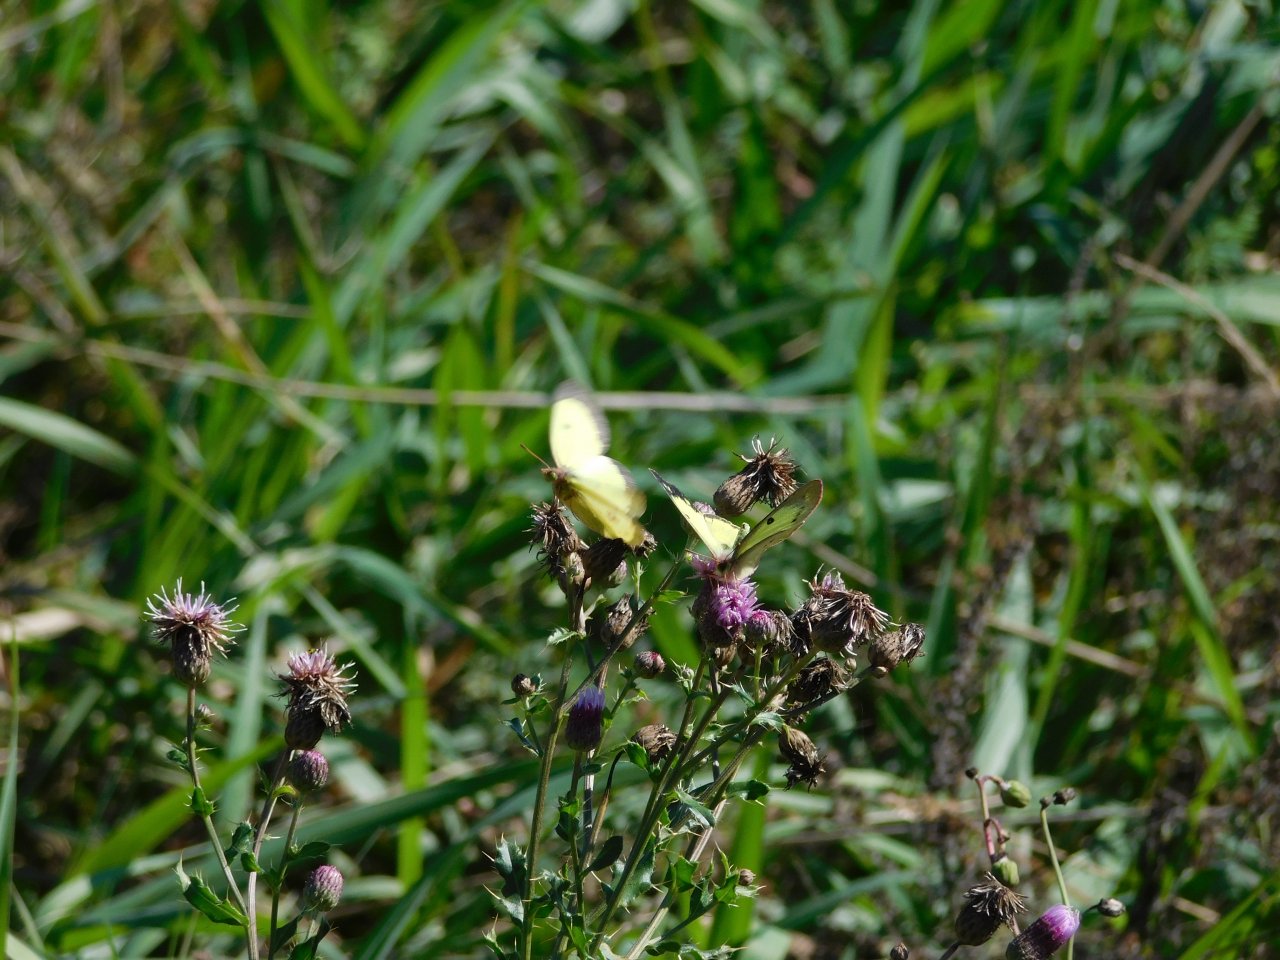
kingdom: Animalia
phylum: Arthropoda
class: Insecta
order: Lepidoptera
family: Pieridae
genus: Colias
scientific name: Colias philodice
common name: Clouded Sulphur
